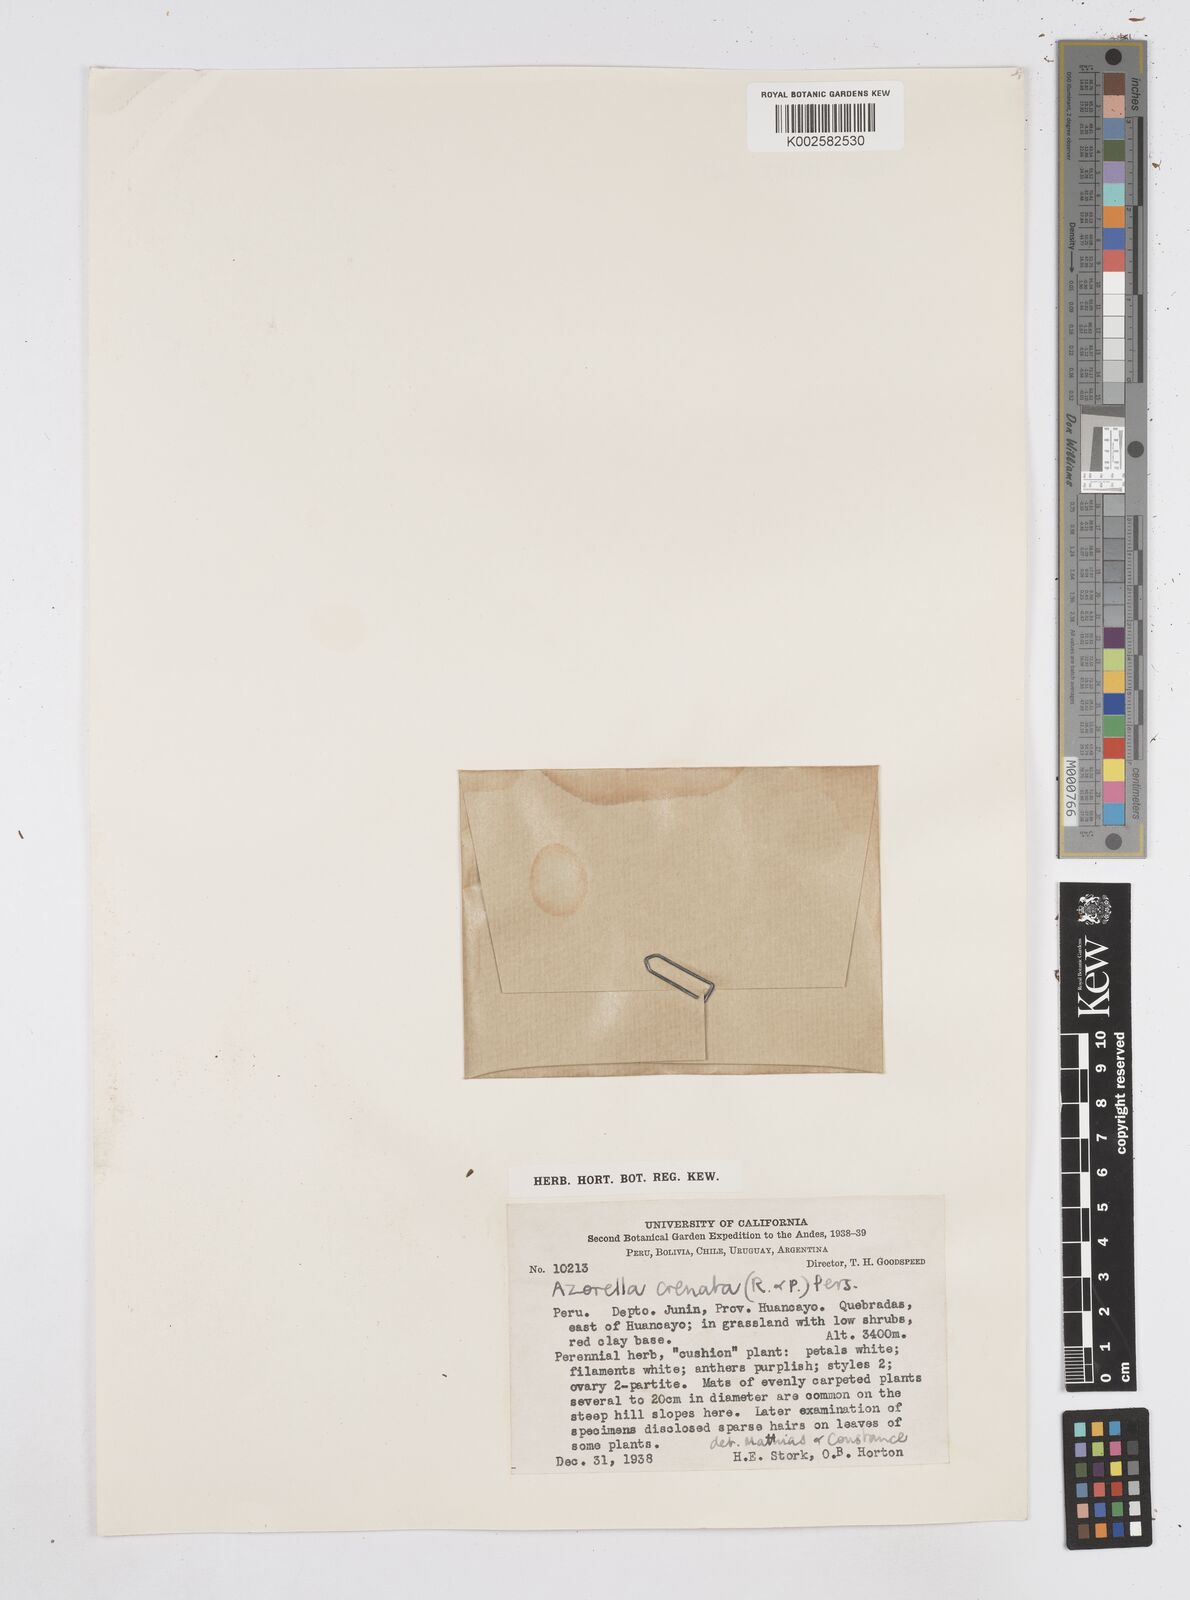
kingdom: Plantae
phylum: Tracheophyta
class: Magnoliopsida
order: Apiales
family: Apiaceae
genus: Azorella
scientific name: Azorella crenata
